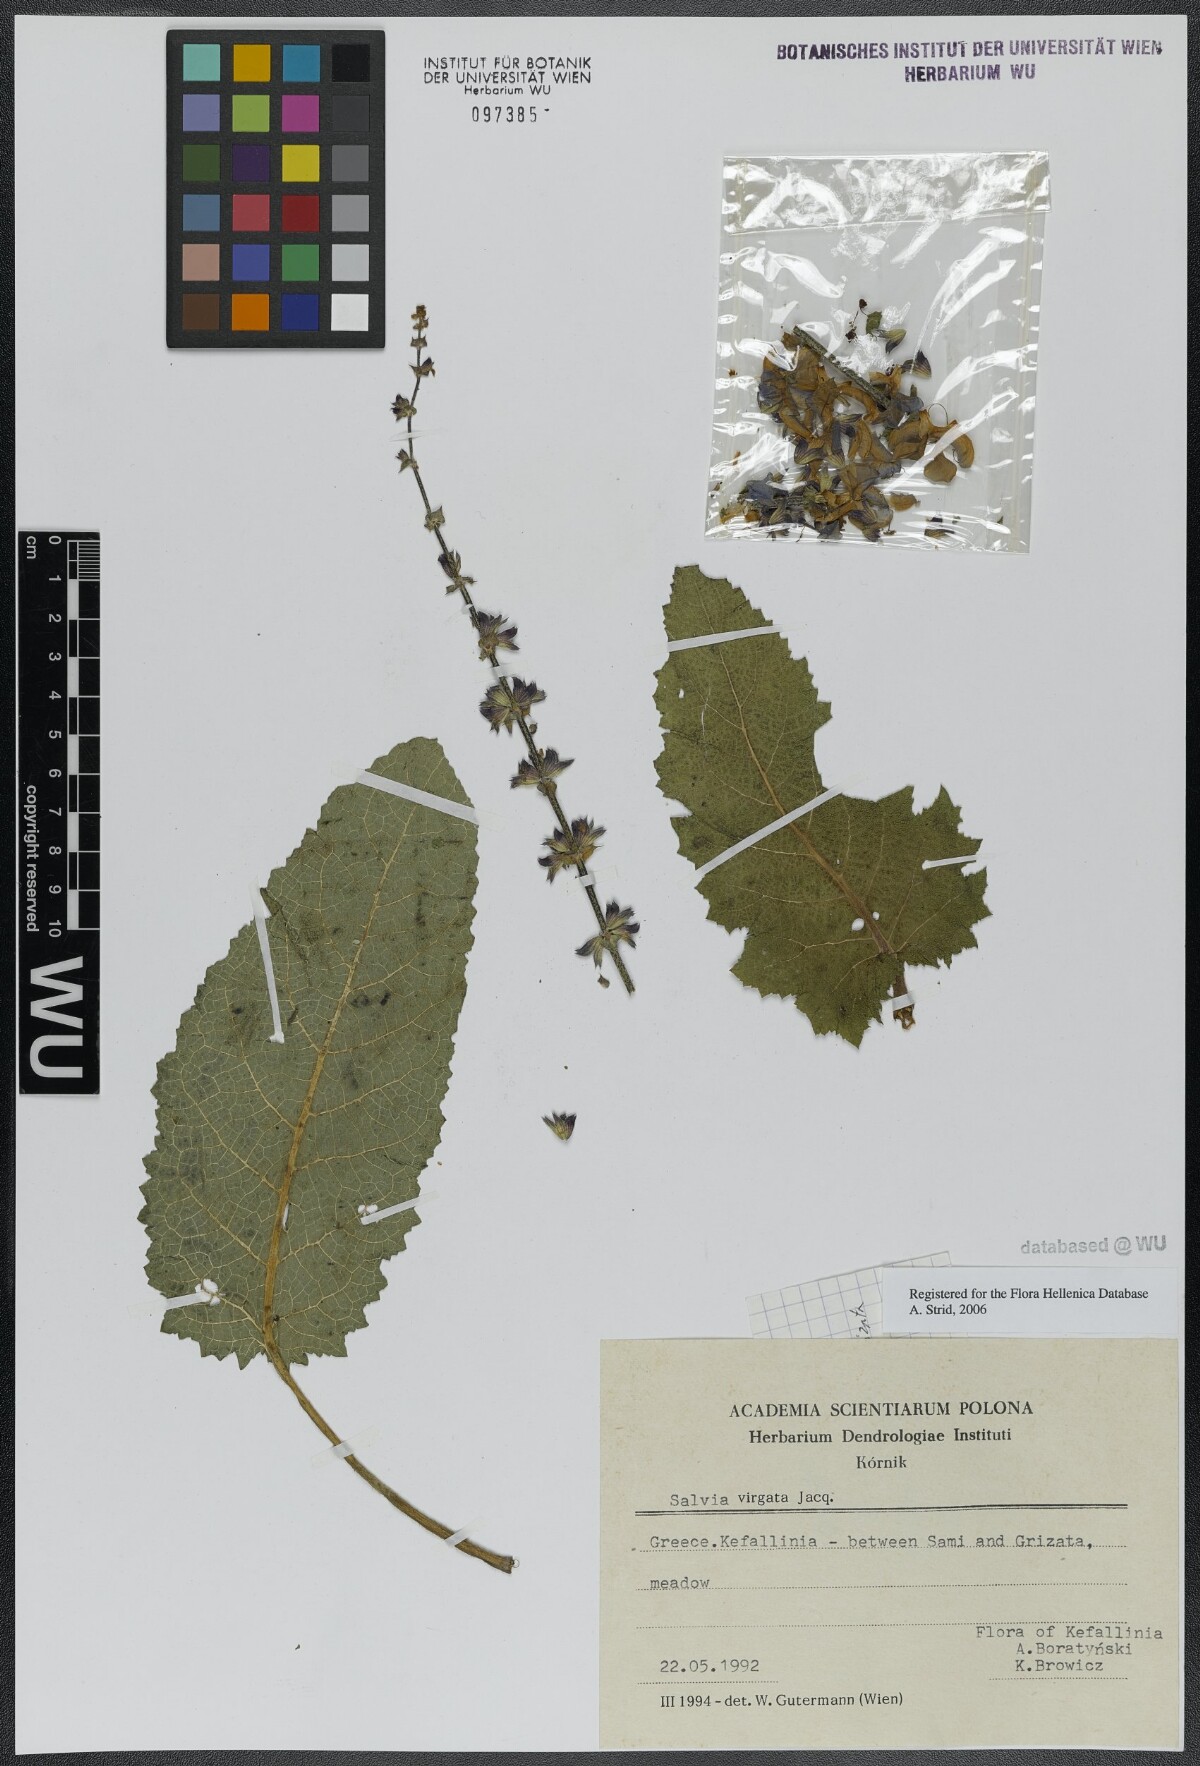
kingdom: Plantae
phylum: Tracheophyta
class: Magnoliopsida
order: Lamiales
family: Lamiaceae
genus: Salvia
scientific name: Salvia virgata
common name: Wand sage
